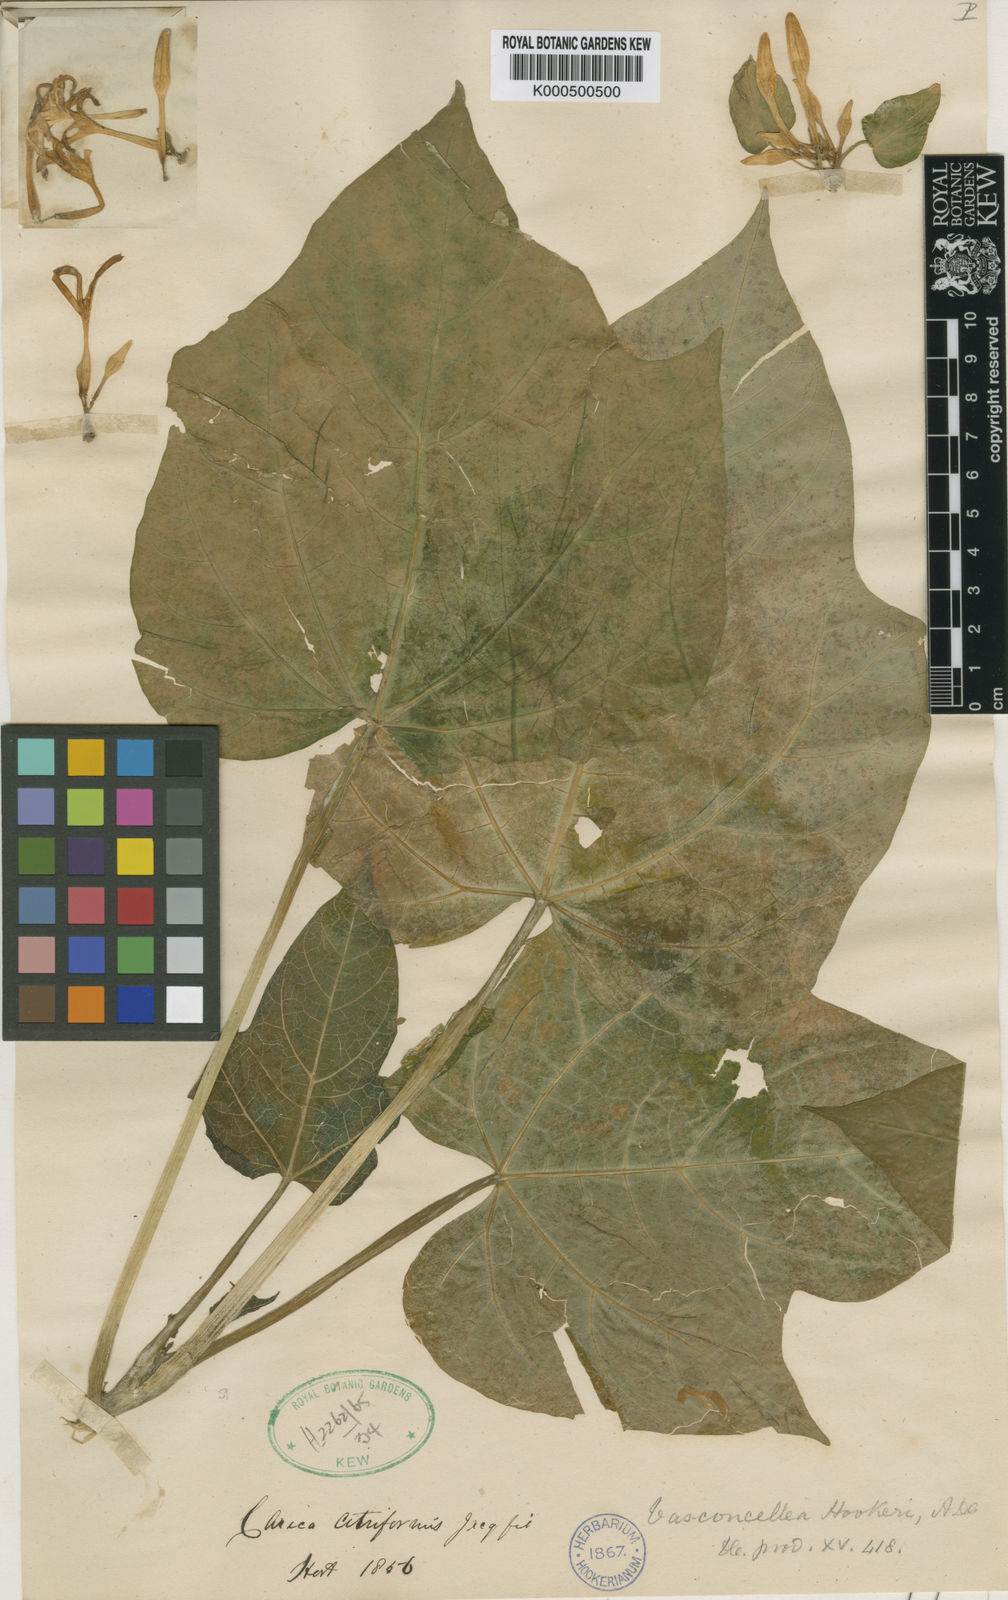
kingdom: Plantae
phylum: Tracheophyta
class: Magnoliopsida
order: Brassicales
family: Caricaceae
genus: Vasconcellea
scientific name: Vasconcellea monoica
